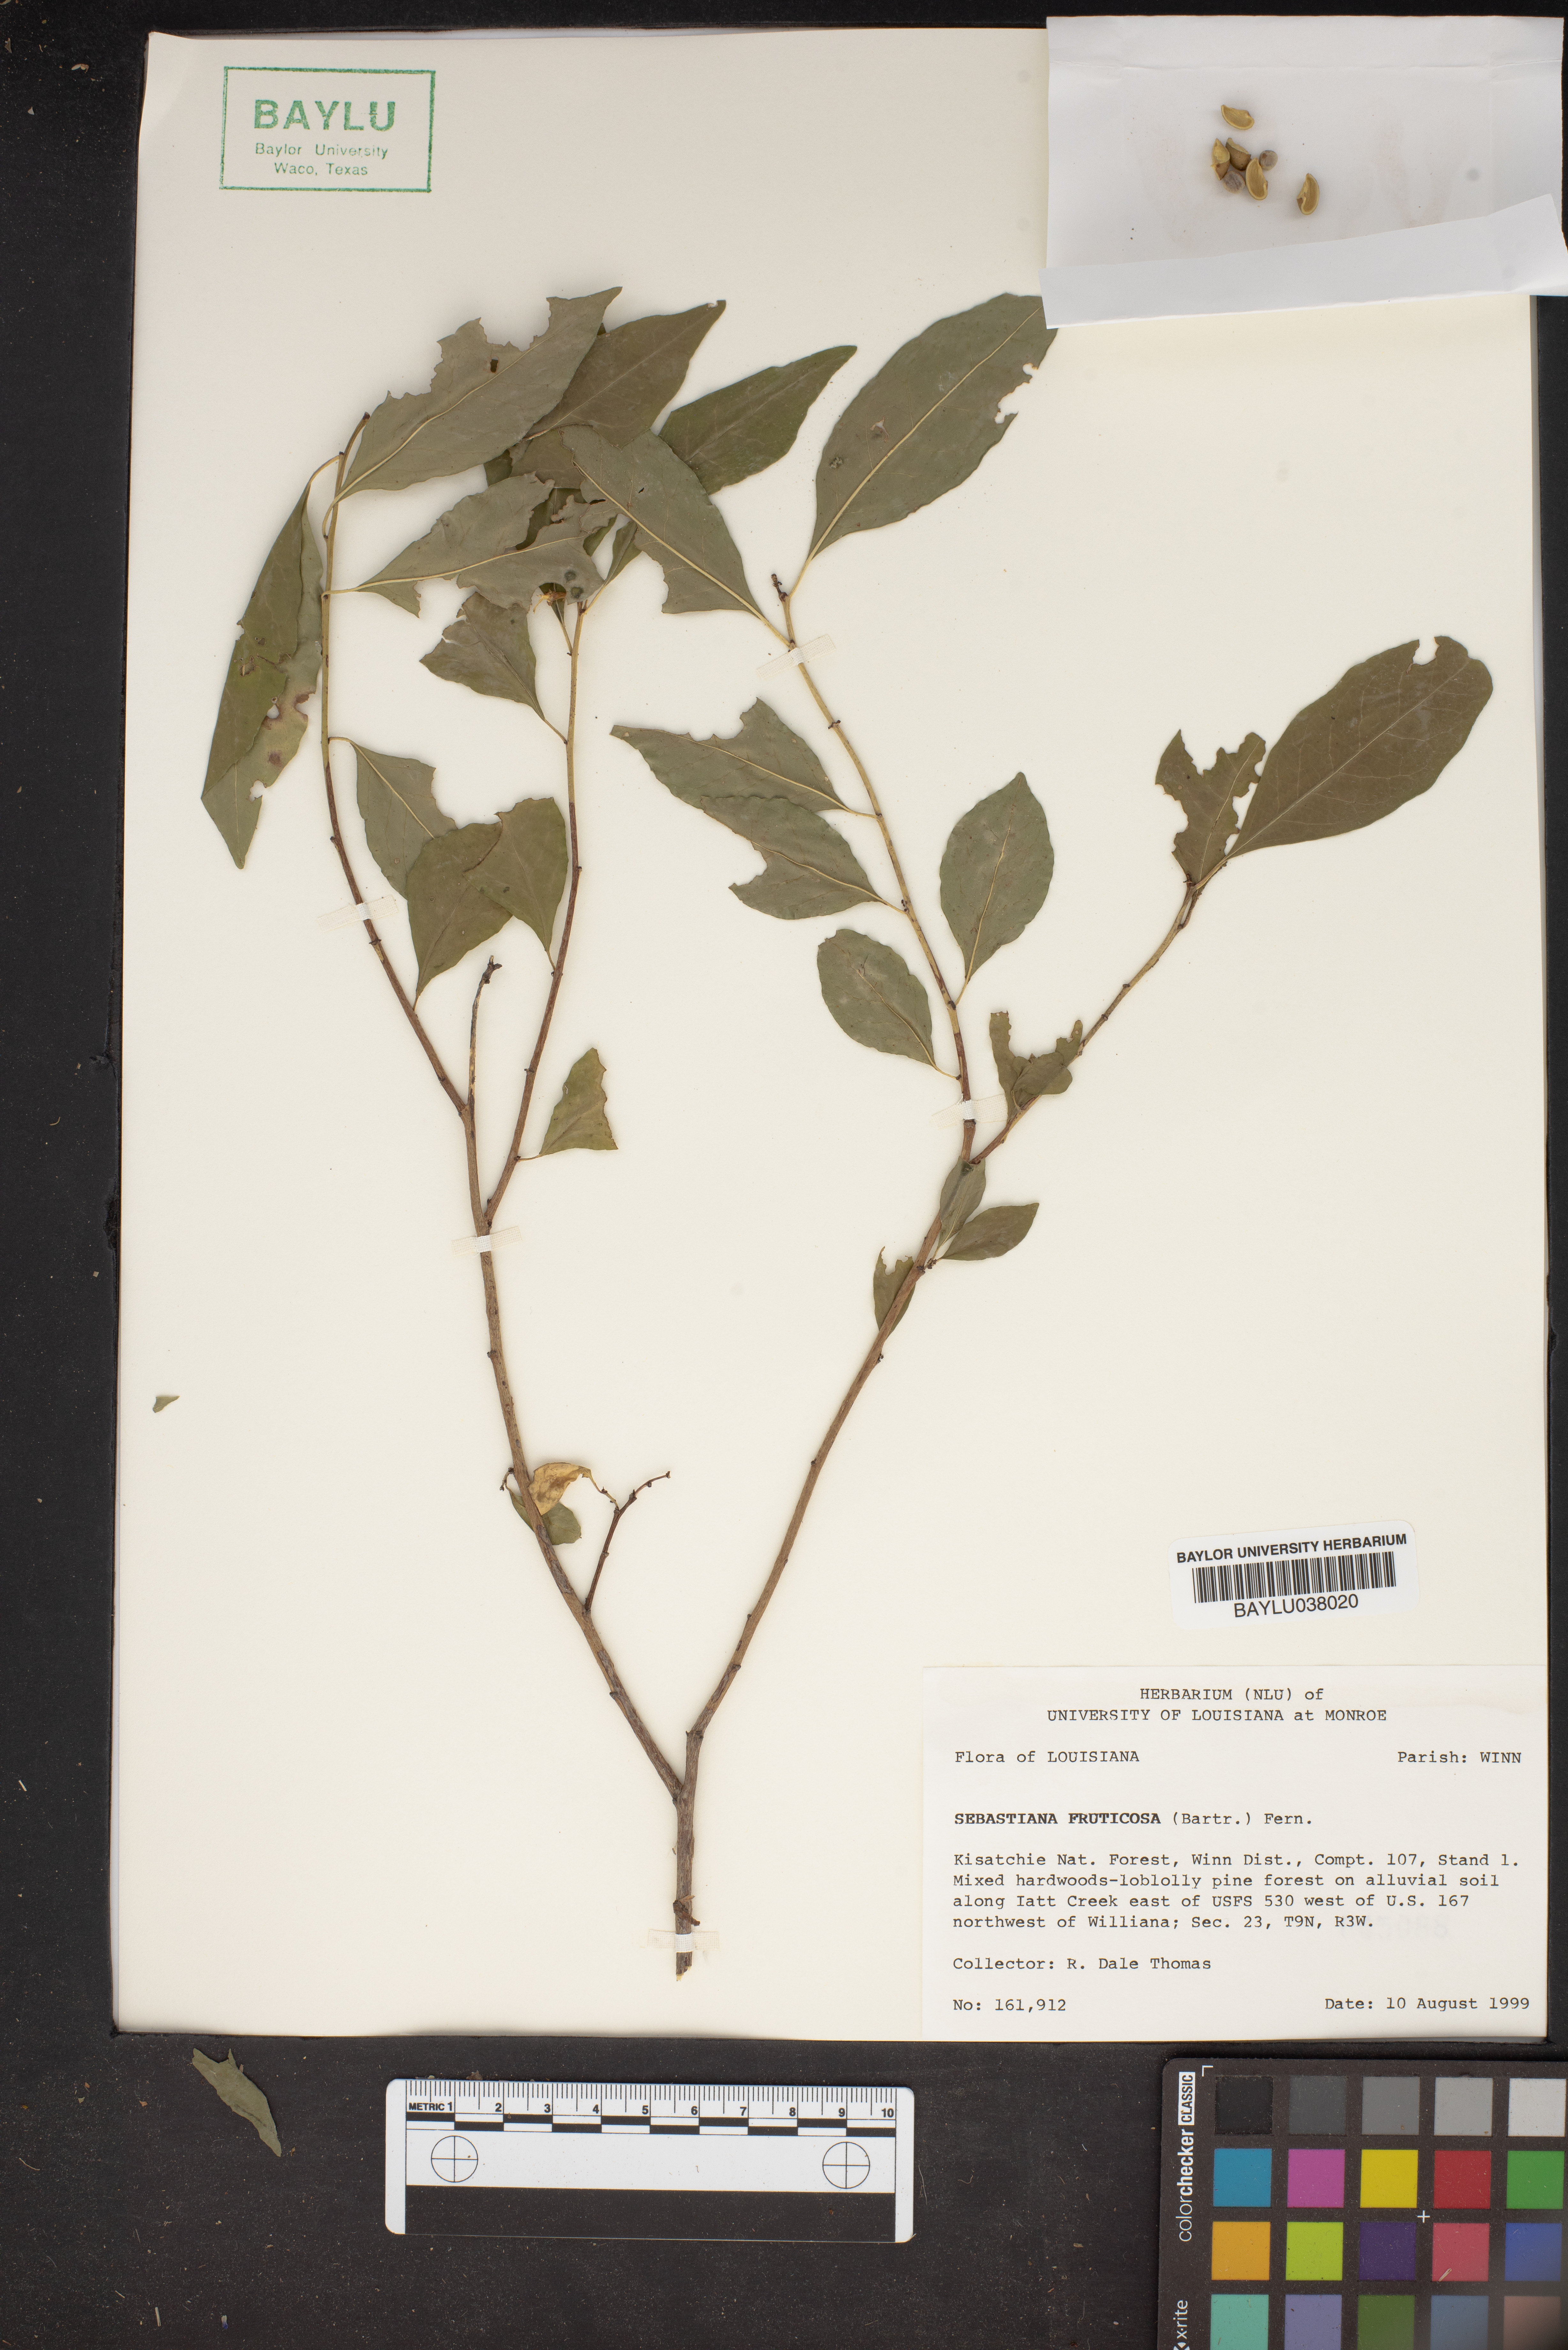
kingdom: Plantae
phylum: Tracheophyta
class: Magnoliopsida
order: Malpighiales
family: Euphorbiaceae
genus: Ditrysinia
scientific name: Ditrysinia fruticosa
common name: Gulf sebastian-bush
